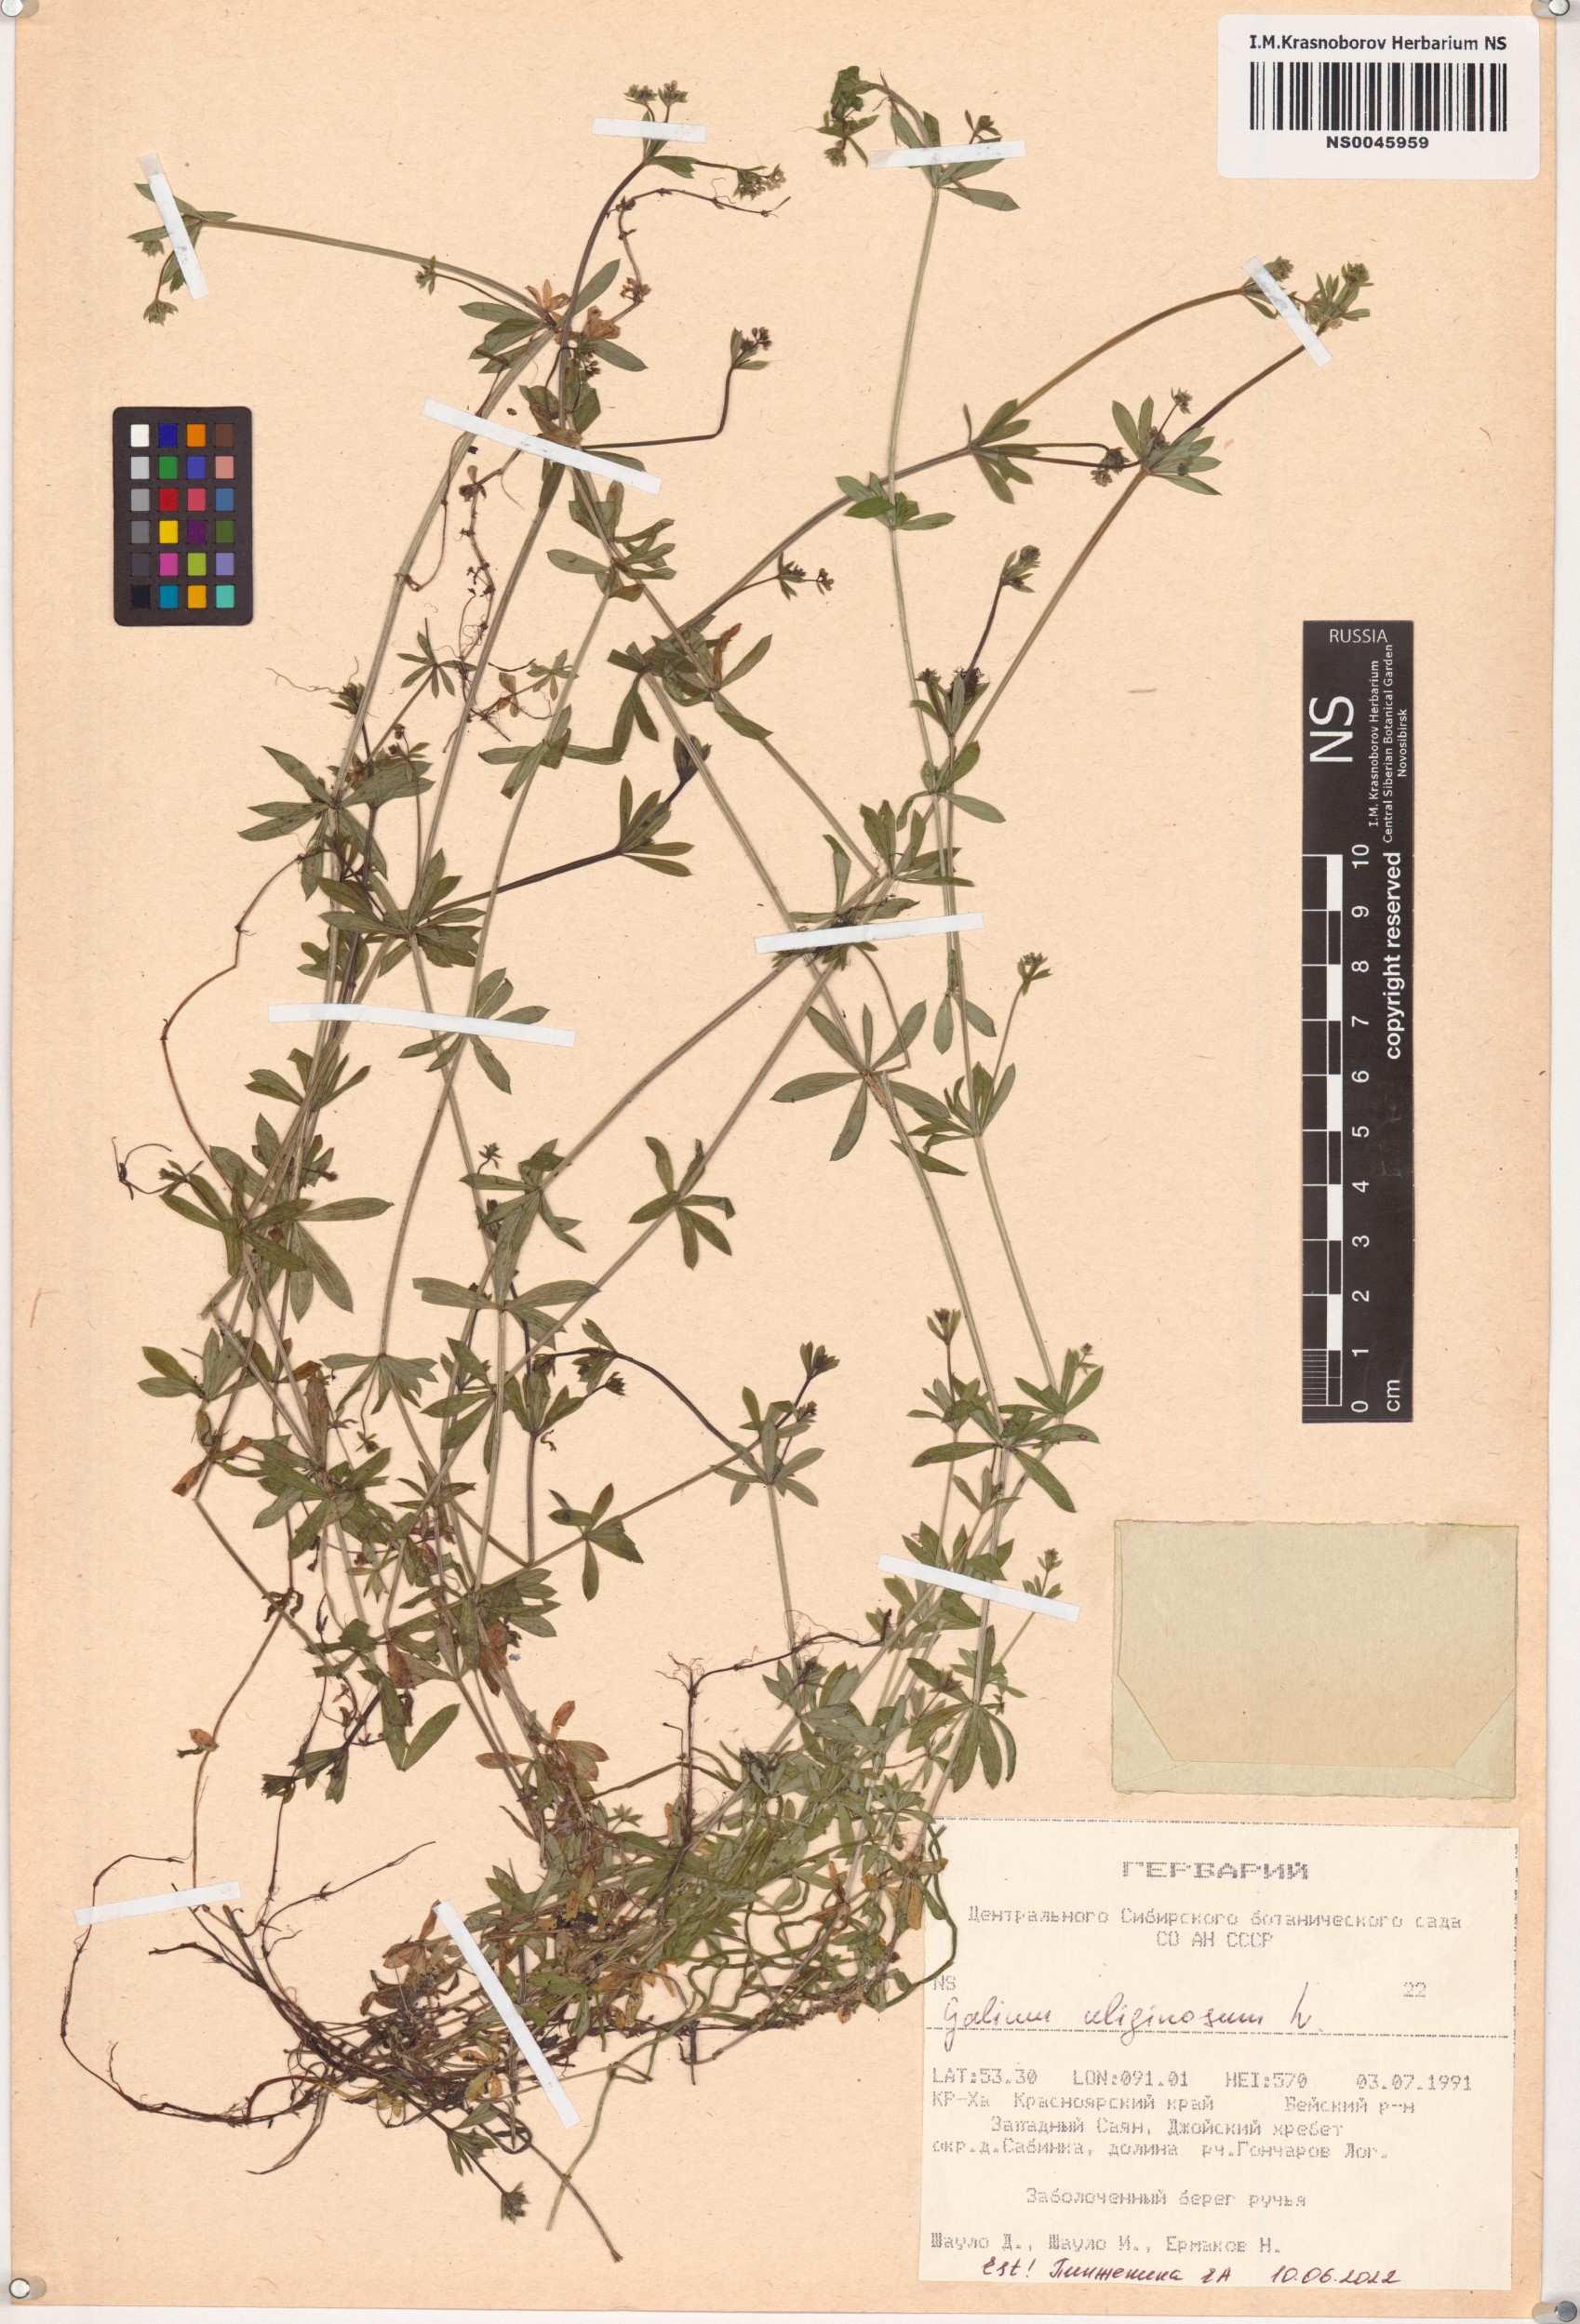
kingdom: Plantae
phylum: Tracheophyta
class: Magnoliopsida
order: Gentianales
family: Rubiaceae
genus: Galium
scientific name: Galium uliginosum
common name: Fen bedstraw
